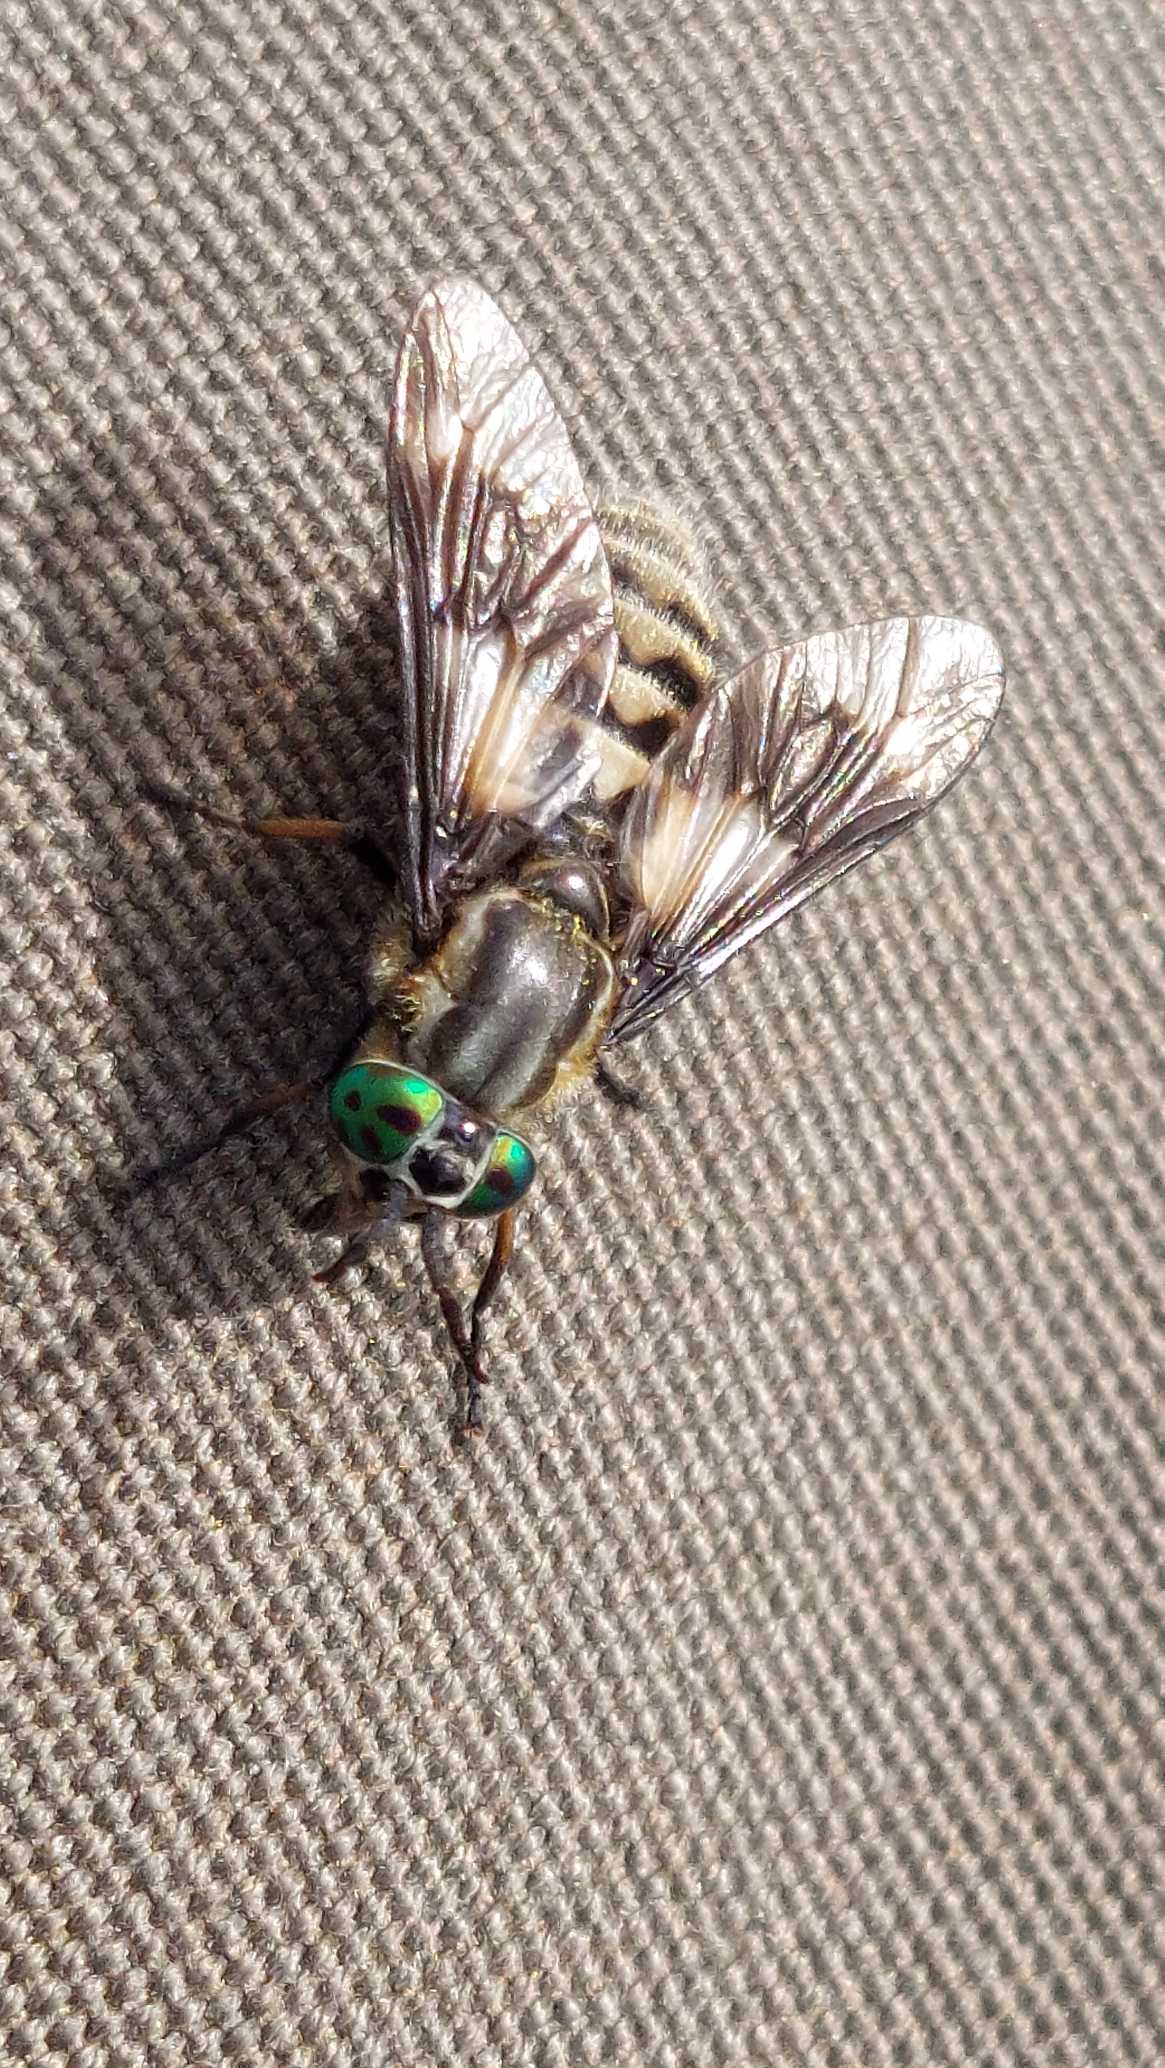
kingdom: Animalia
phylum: Arthropoda
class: Insecta
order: Diptera
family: Tabanidae
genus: Chrysops
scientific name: Chrysops relictus
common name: Guldklæg
